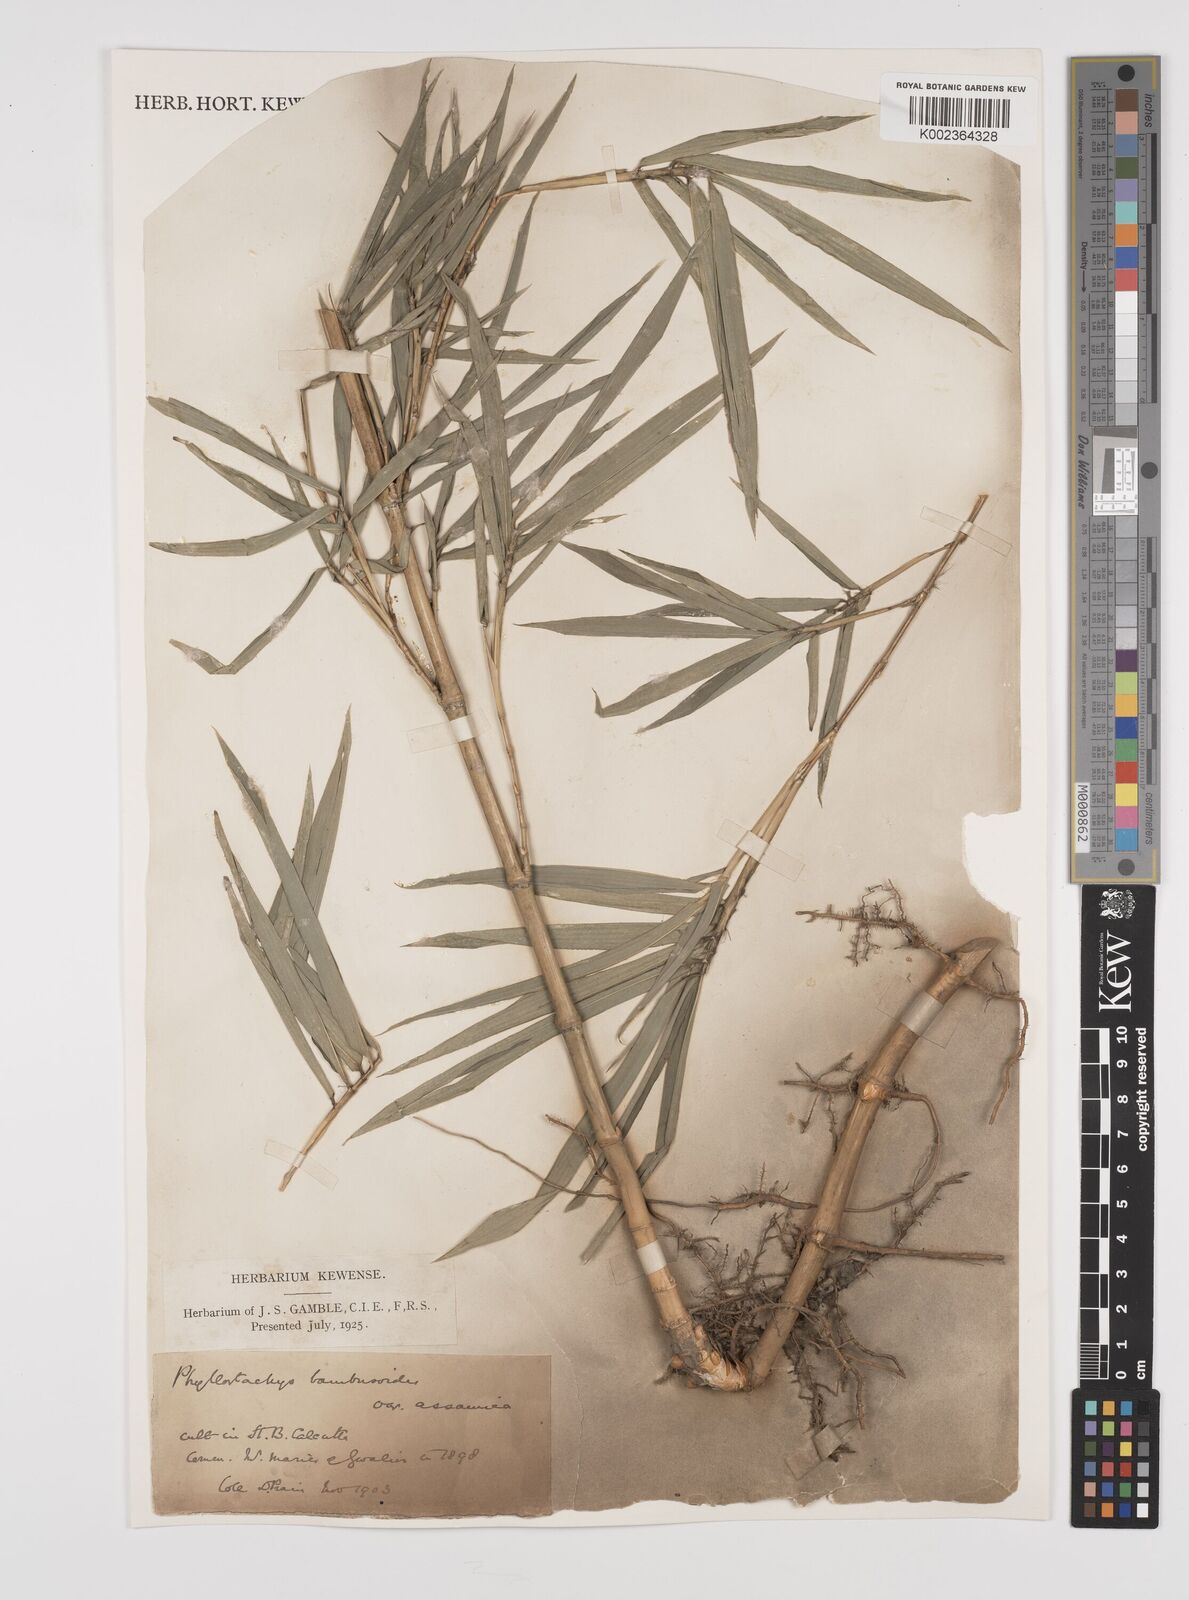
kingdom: Plantae
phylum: Tracheophyta
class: Liliopsida
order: Poales
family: Poaceae
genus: Phyllostachys
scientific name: Phyllostachys reticulata
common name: Bamboo
